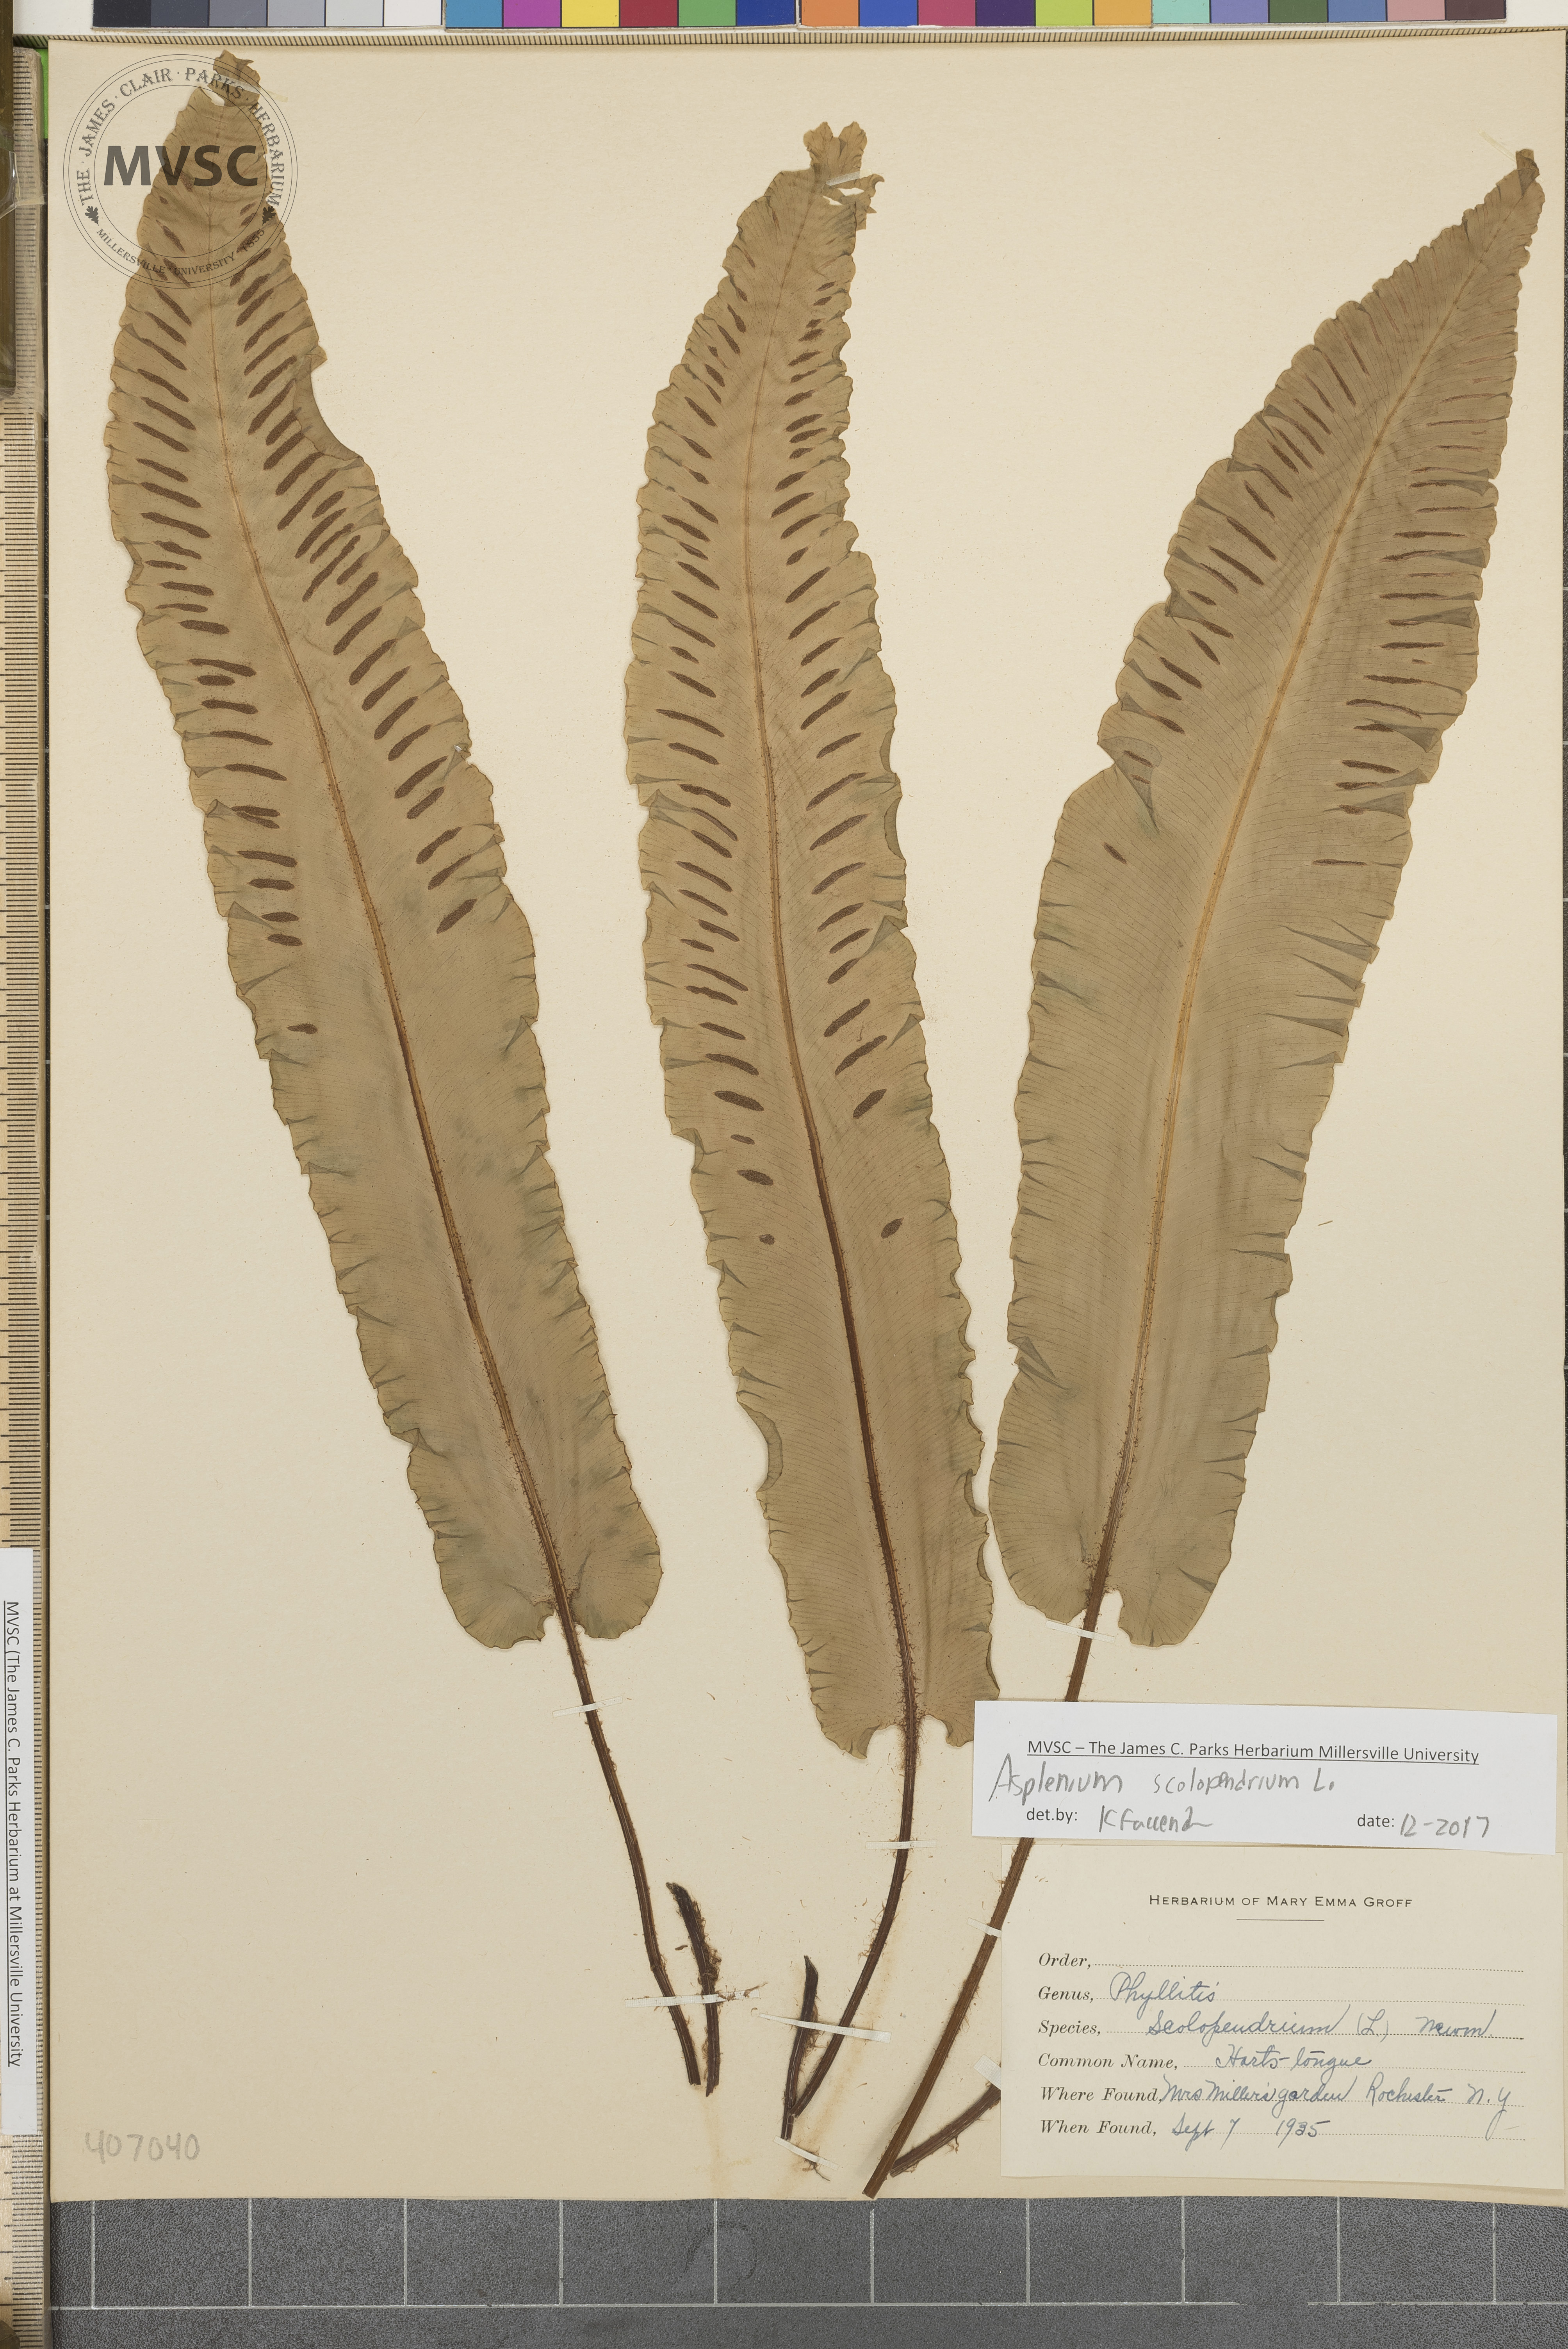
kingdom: Plantae
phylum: Tracheophyta
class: Polypodiopsida
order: Polypodiales
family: Aspleniaceae
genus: Asplenium
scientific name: Asplenium scolopendrium
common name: Hart's-tongue fern
